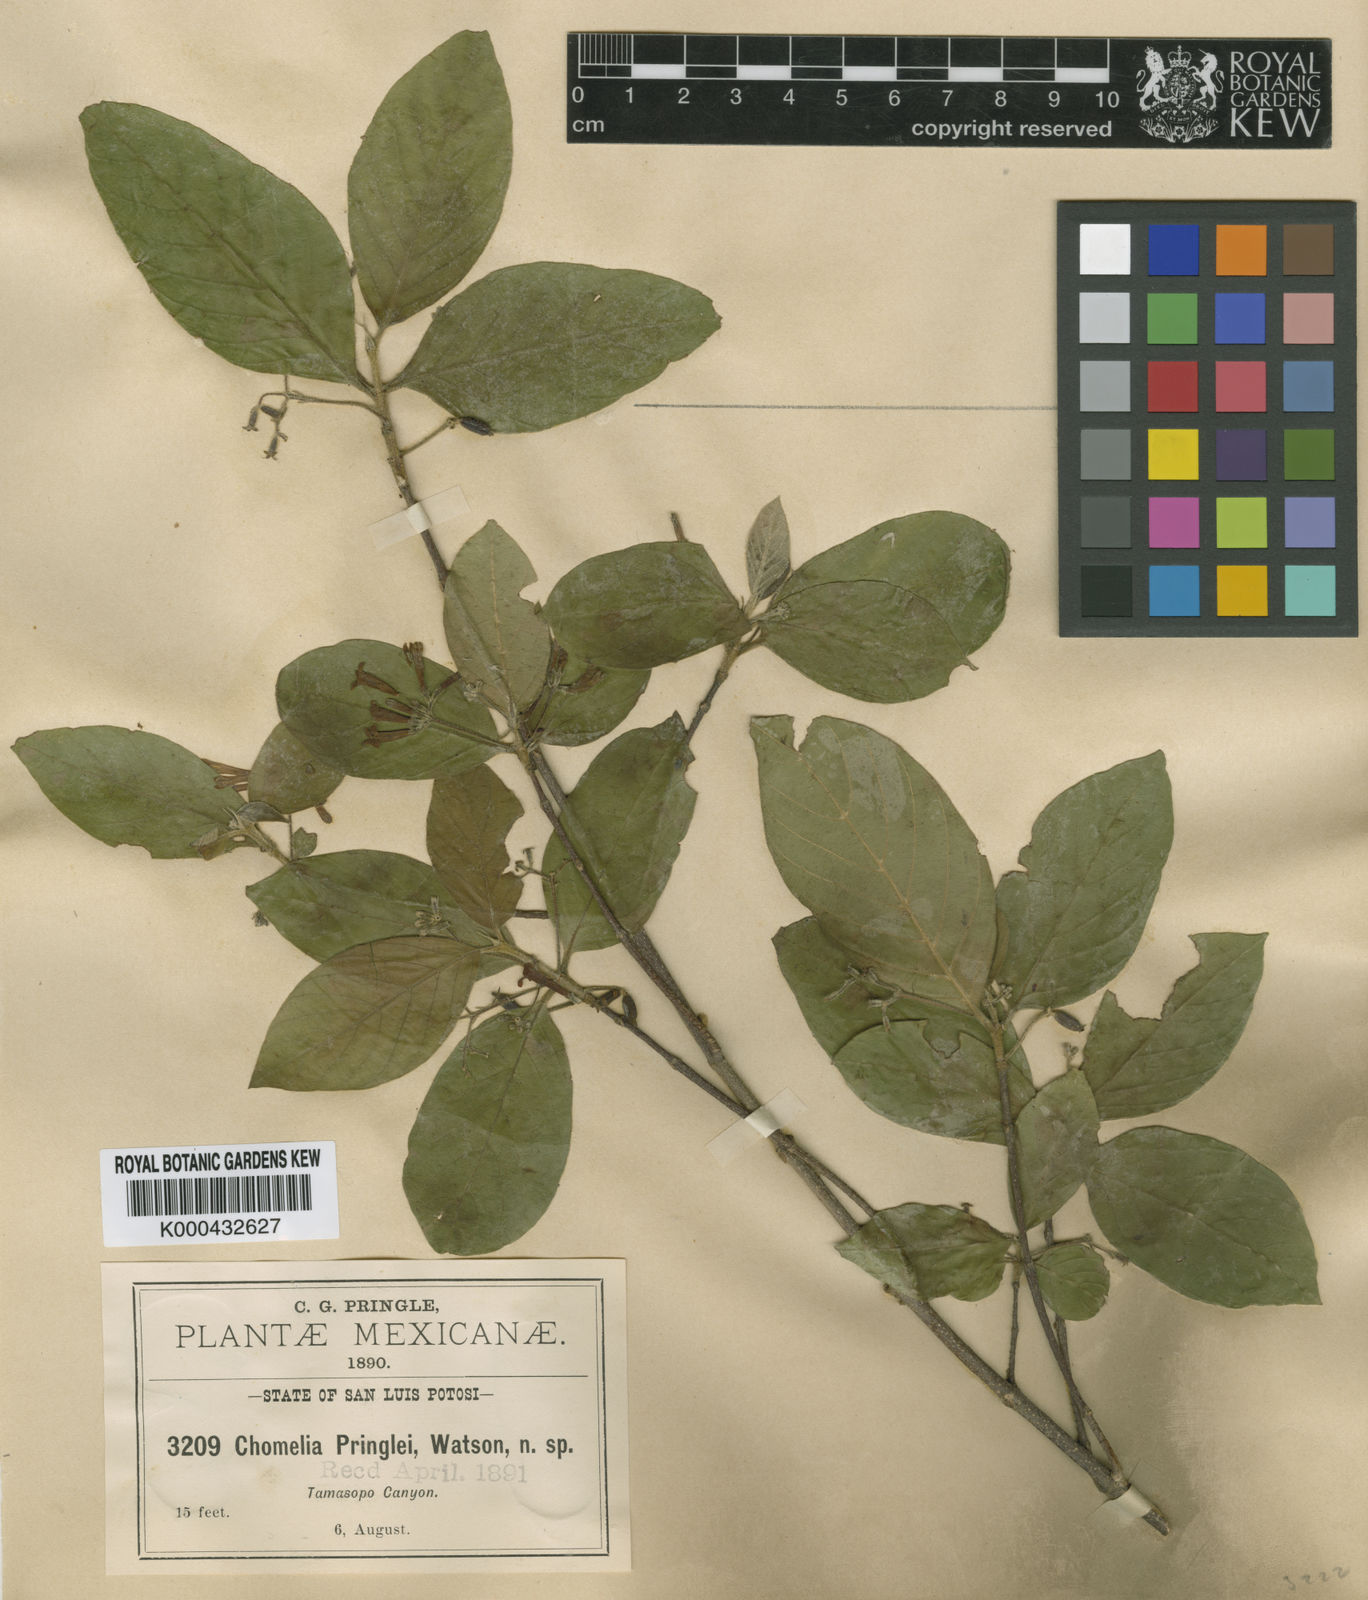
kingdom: Plantae
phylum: Tracheophyta
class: Magnoliopsida
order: Gentianales
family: Rubiaceae
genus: Chomelia
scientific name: Chomelia pringlei
